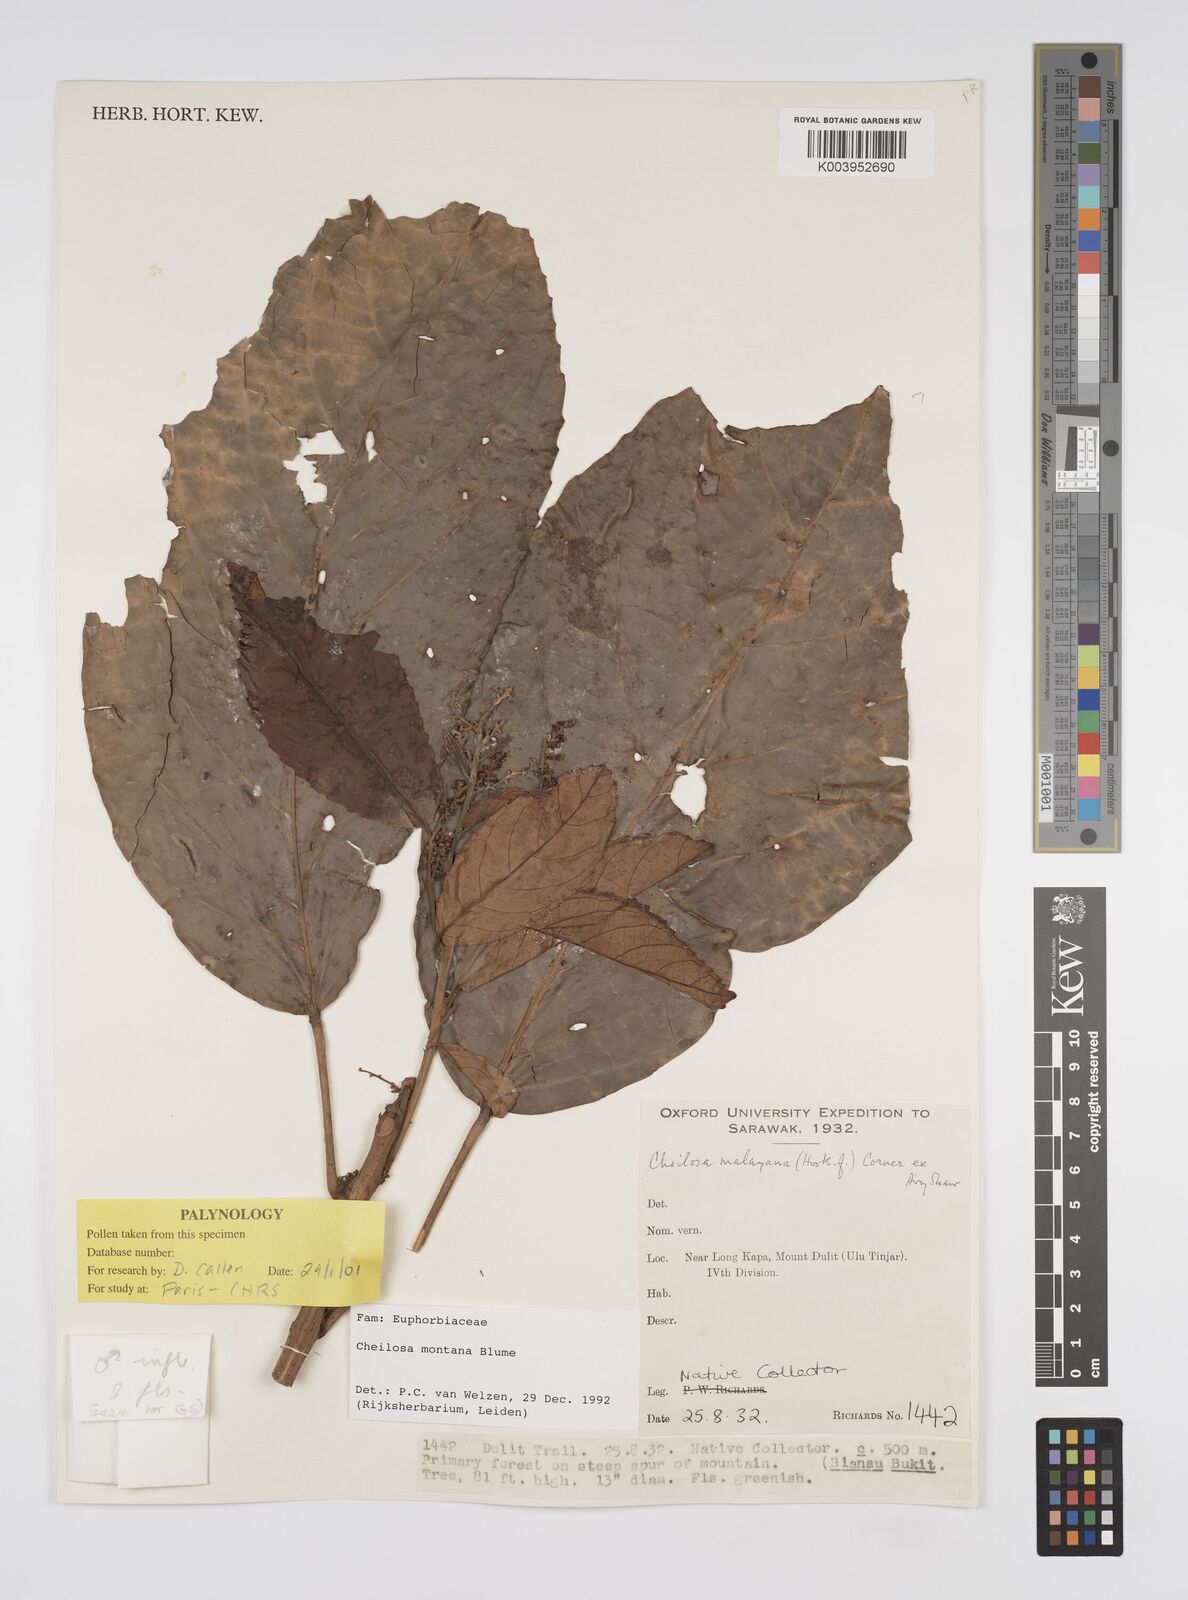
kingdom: Plantae
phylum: Tracheophyta
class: Magnoliopsida
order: Malpighiales
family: Euphorbiaceae
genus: Cheilosa
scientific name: Cheilosa montana
